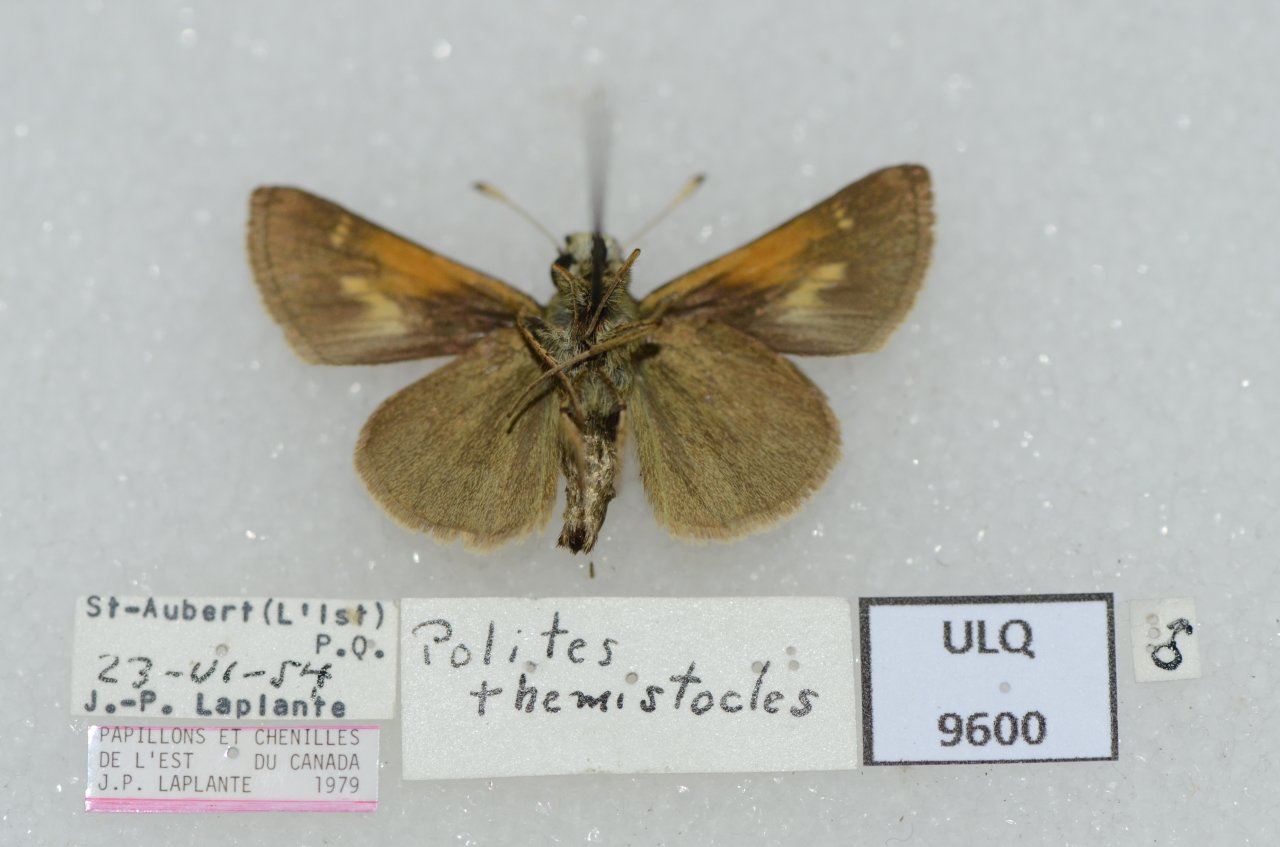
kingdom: Animalia
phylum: Arthropoda
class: Insecta
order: Lepidoptera
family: Hesperiidae
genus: Polites
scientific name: Polites themistocles
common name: Tawny-edged Skipper
